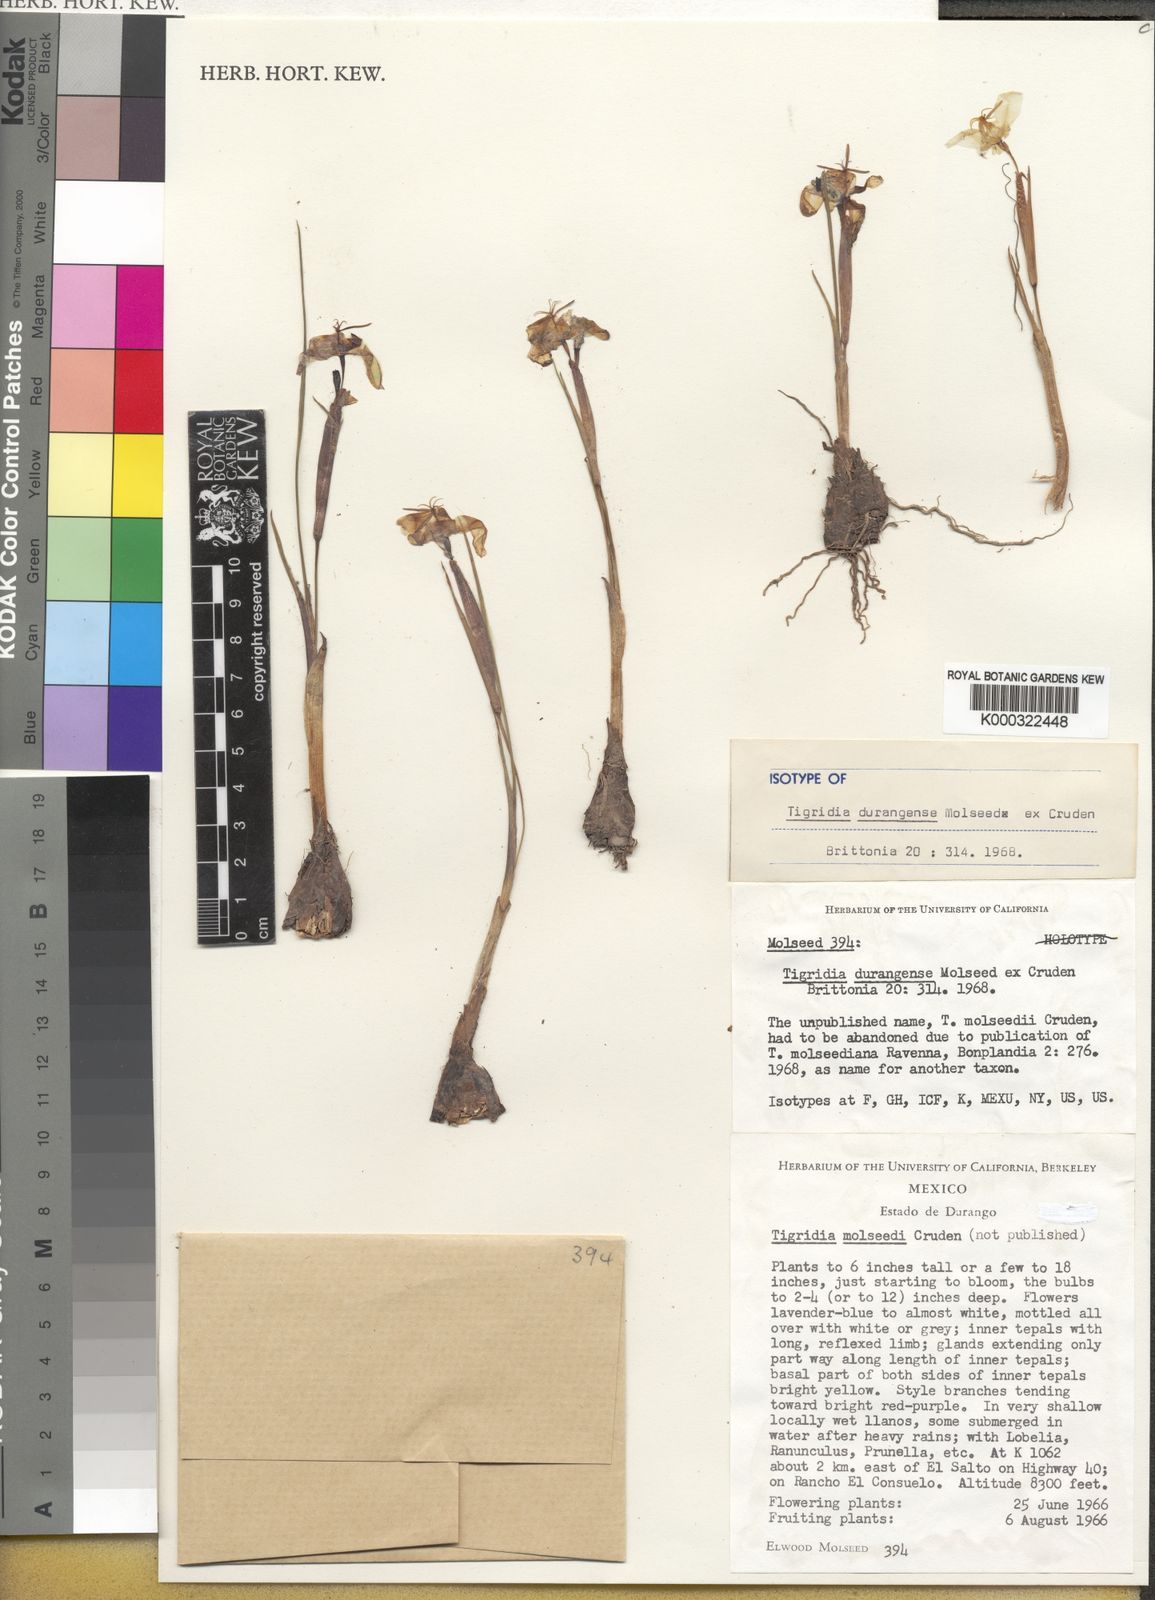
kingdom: Plantae
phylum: Tracheophyta
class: Liliopsida
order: Asparagales
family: Iridaceae
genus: Tigridia
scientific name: Tigridia
